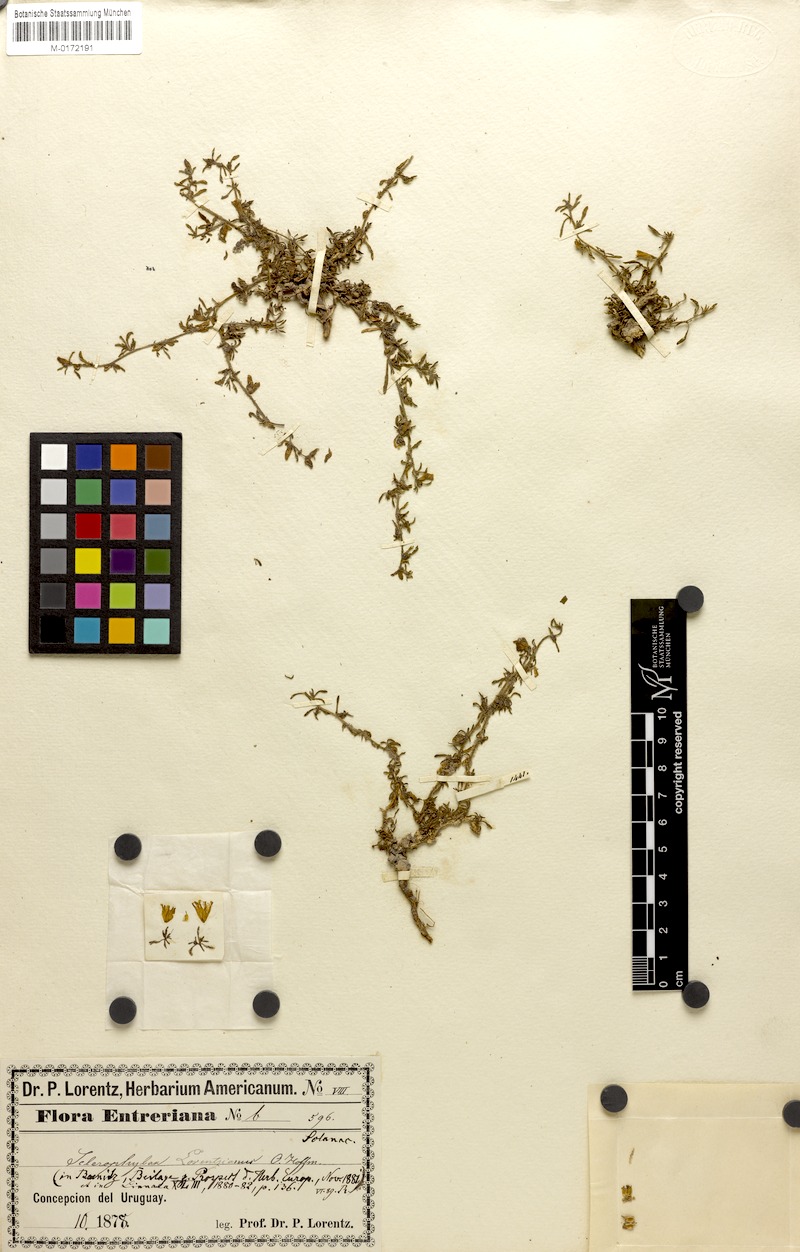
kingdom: Plantae
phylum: Tracheophyta
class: Magnoliopsida
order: Solanales
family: Solanaceae
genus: Sclerophylax
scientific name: Sclerophylax lorentzianus
